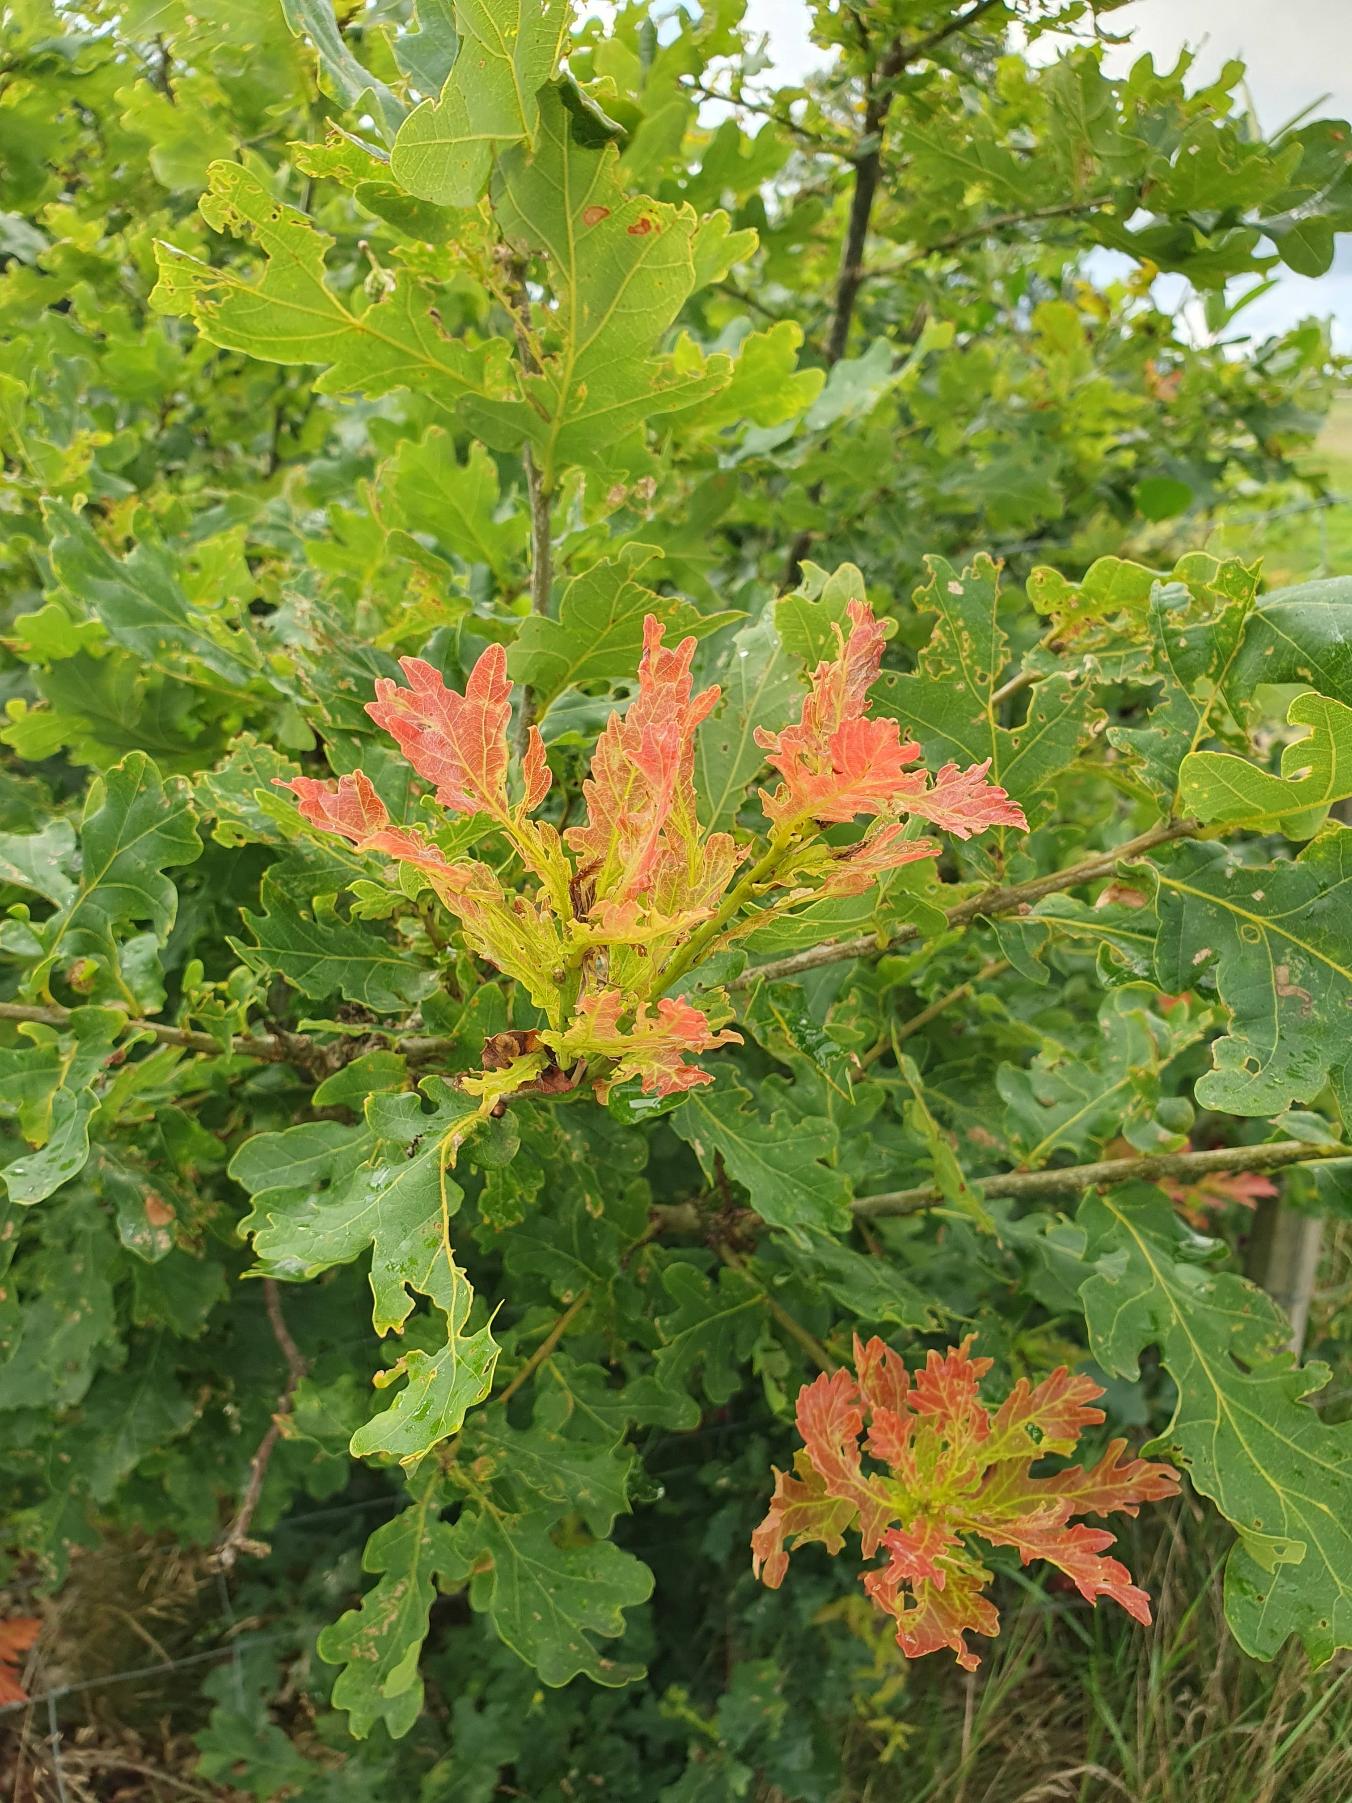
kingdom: Plantae
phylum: Tracheophyta
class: Magnoliopsida
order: Fagales
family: Fagaceae
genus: Quercus
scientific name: Quercus robur
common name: Stilk-eg/almindelig eg
